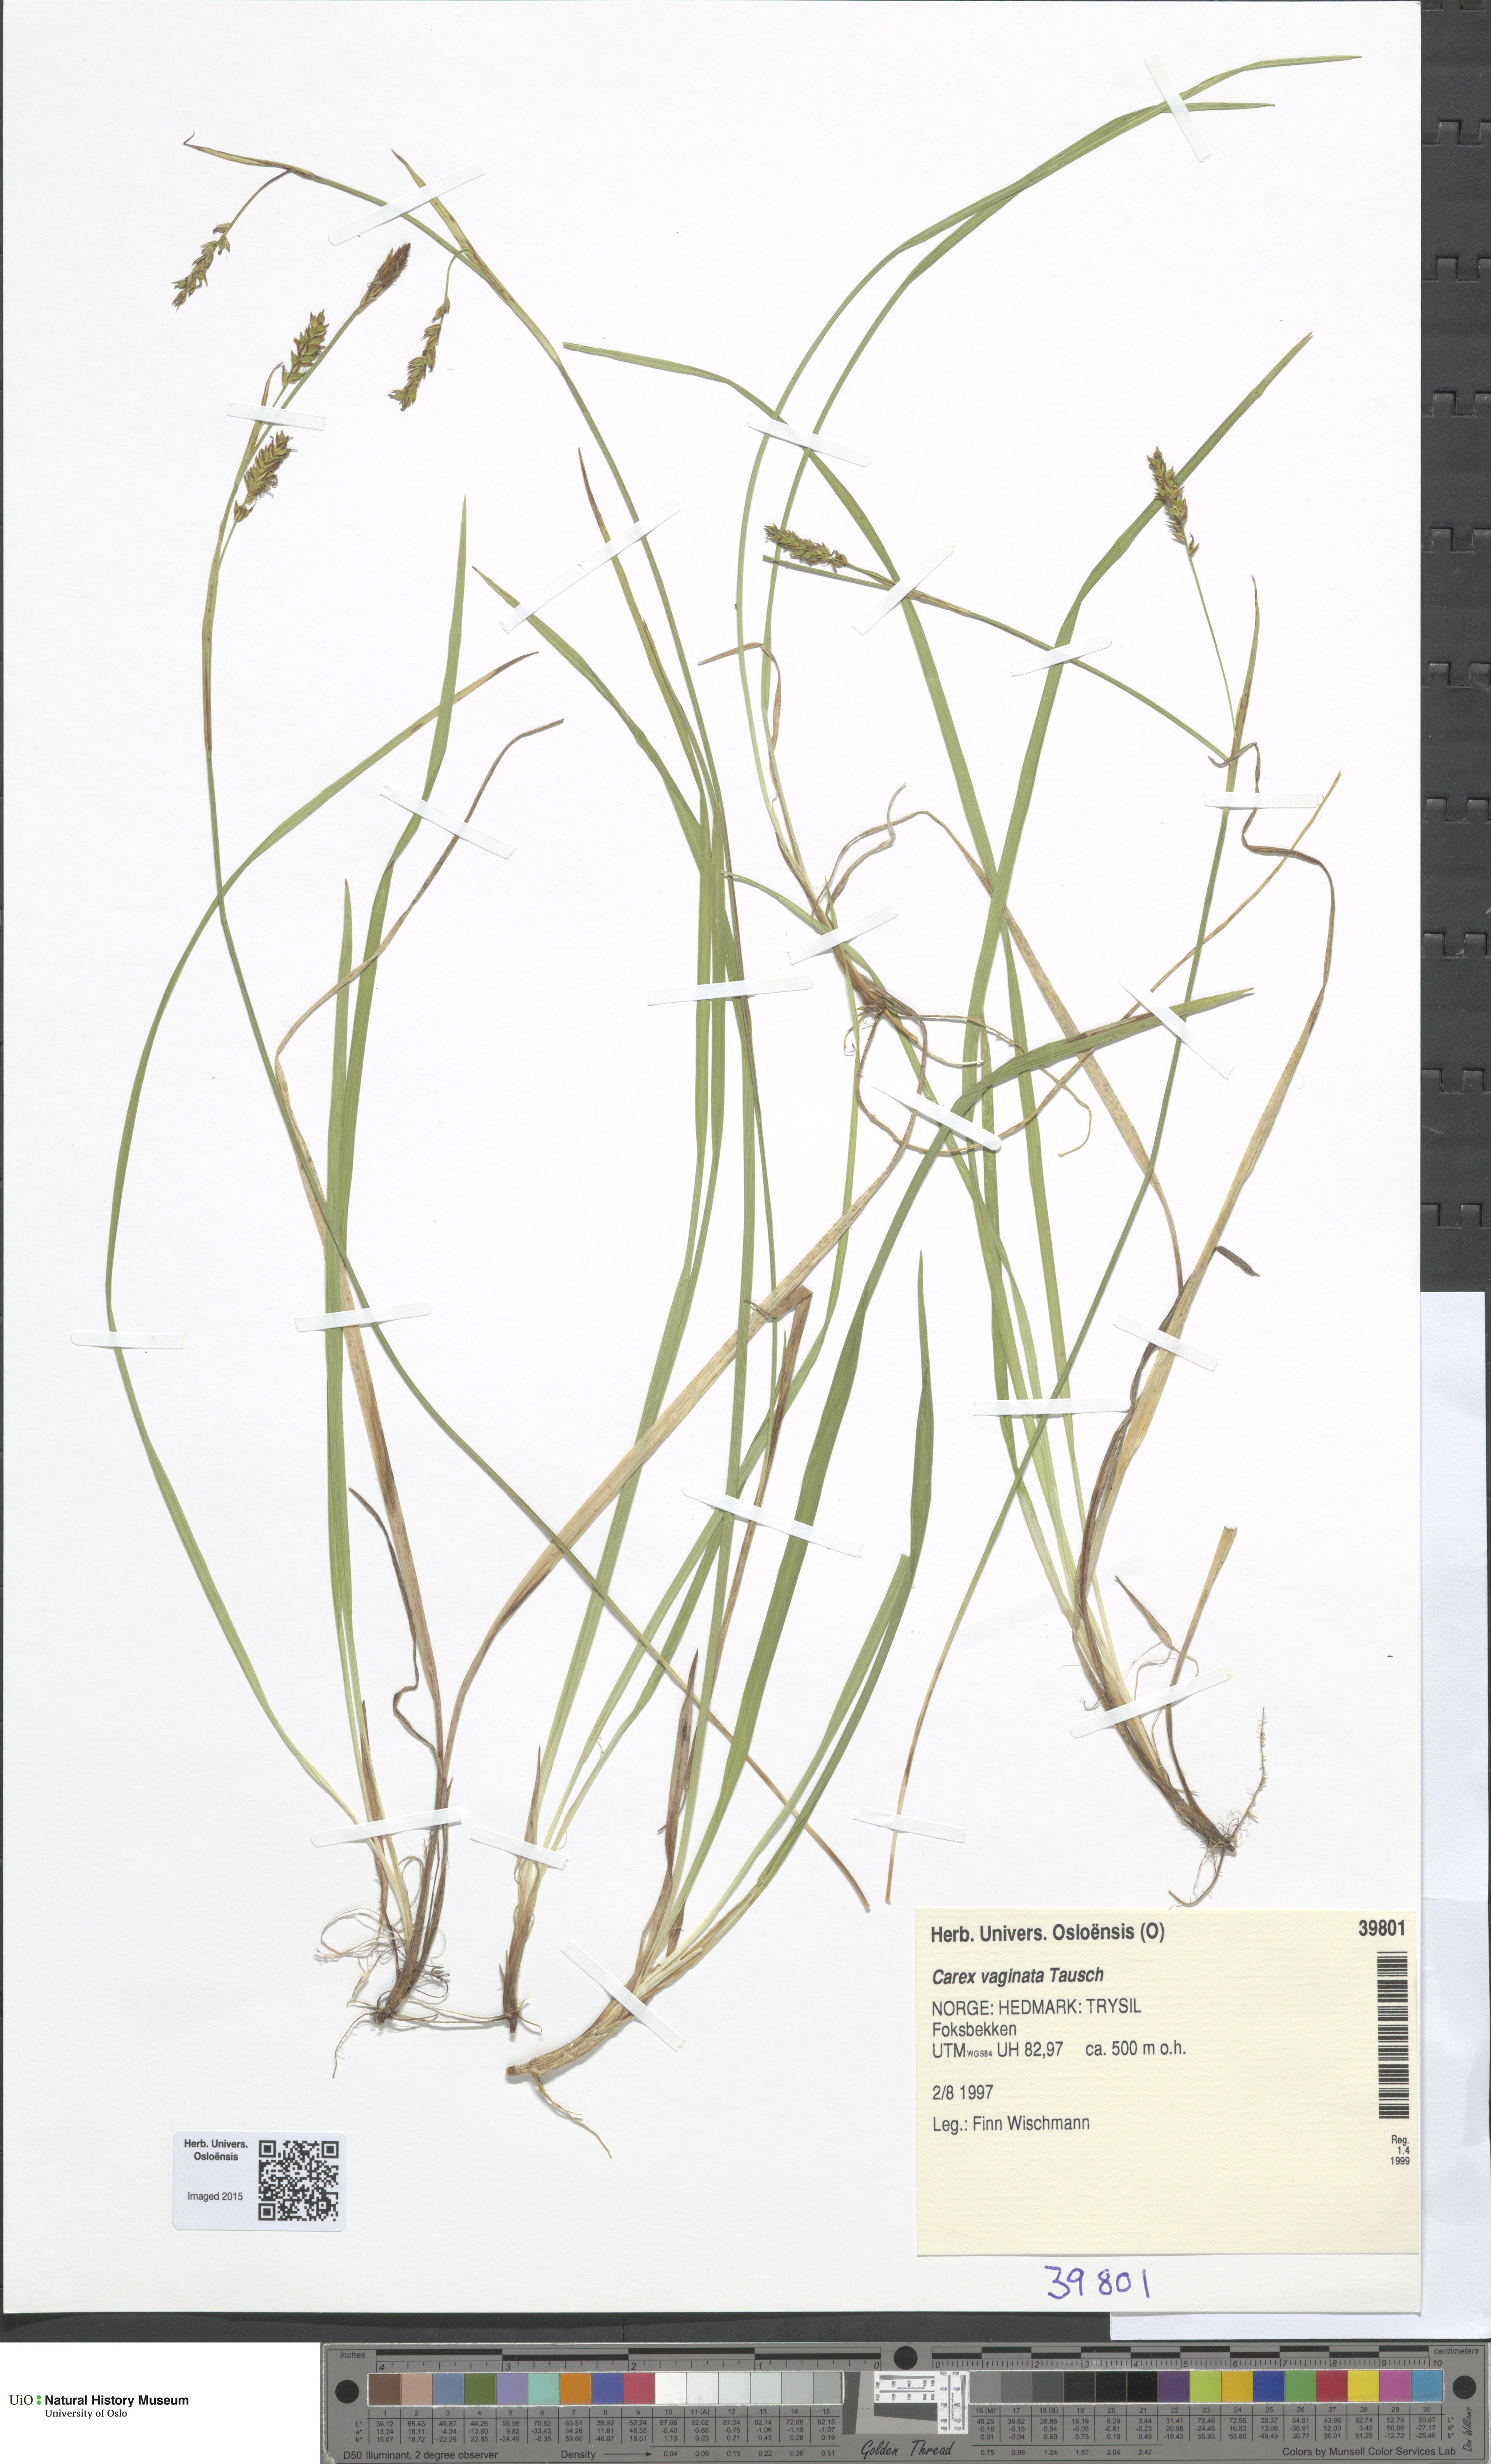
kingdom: Plantae
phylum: Tracheophyta
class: Liliopsida
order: Poales
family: Cyperaceae
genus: Carex
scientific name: Carex vaginata
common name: Sheathed sedge
